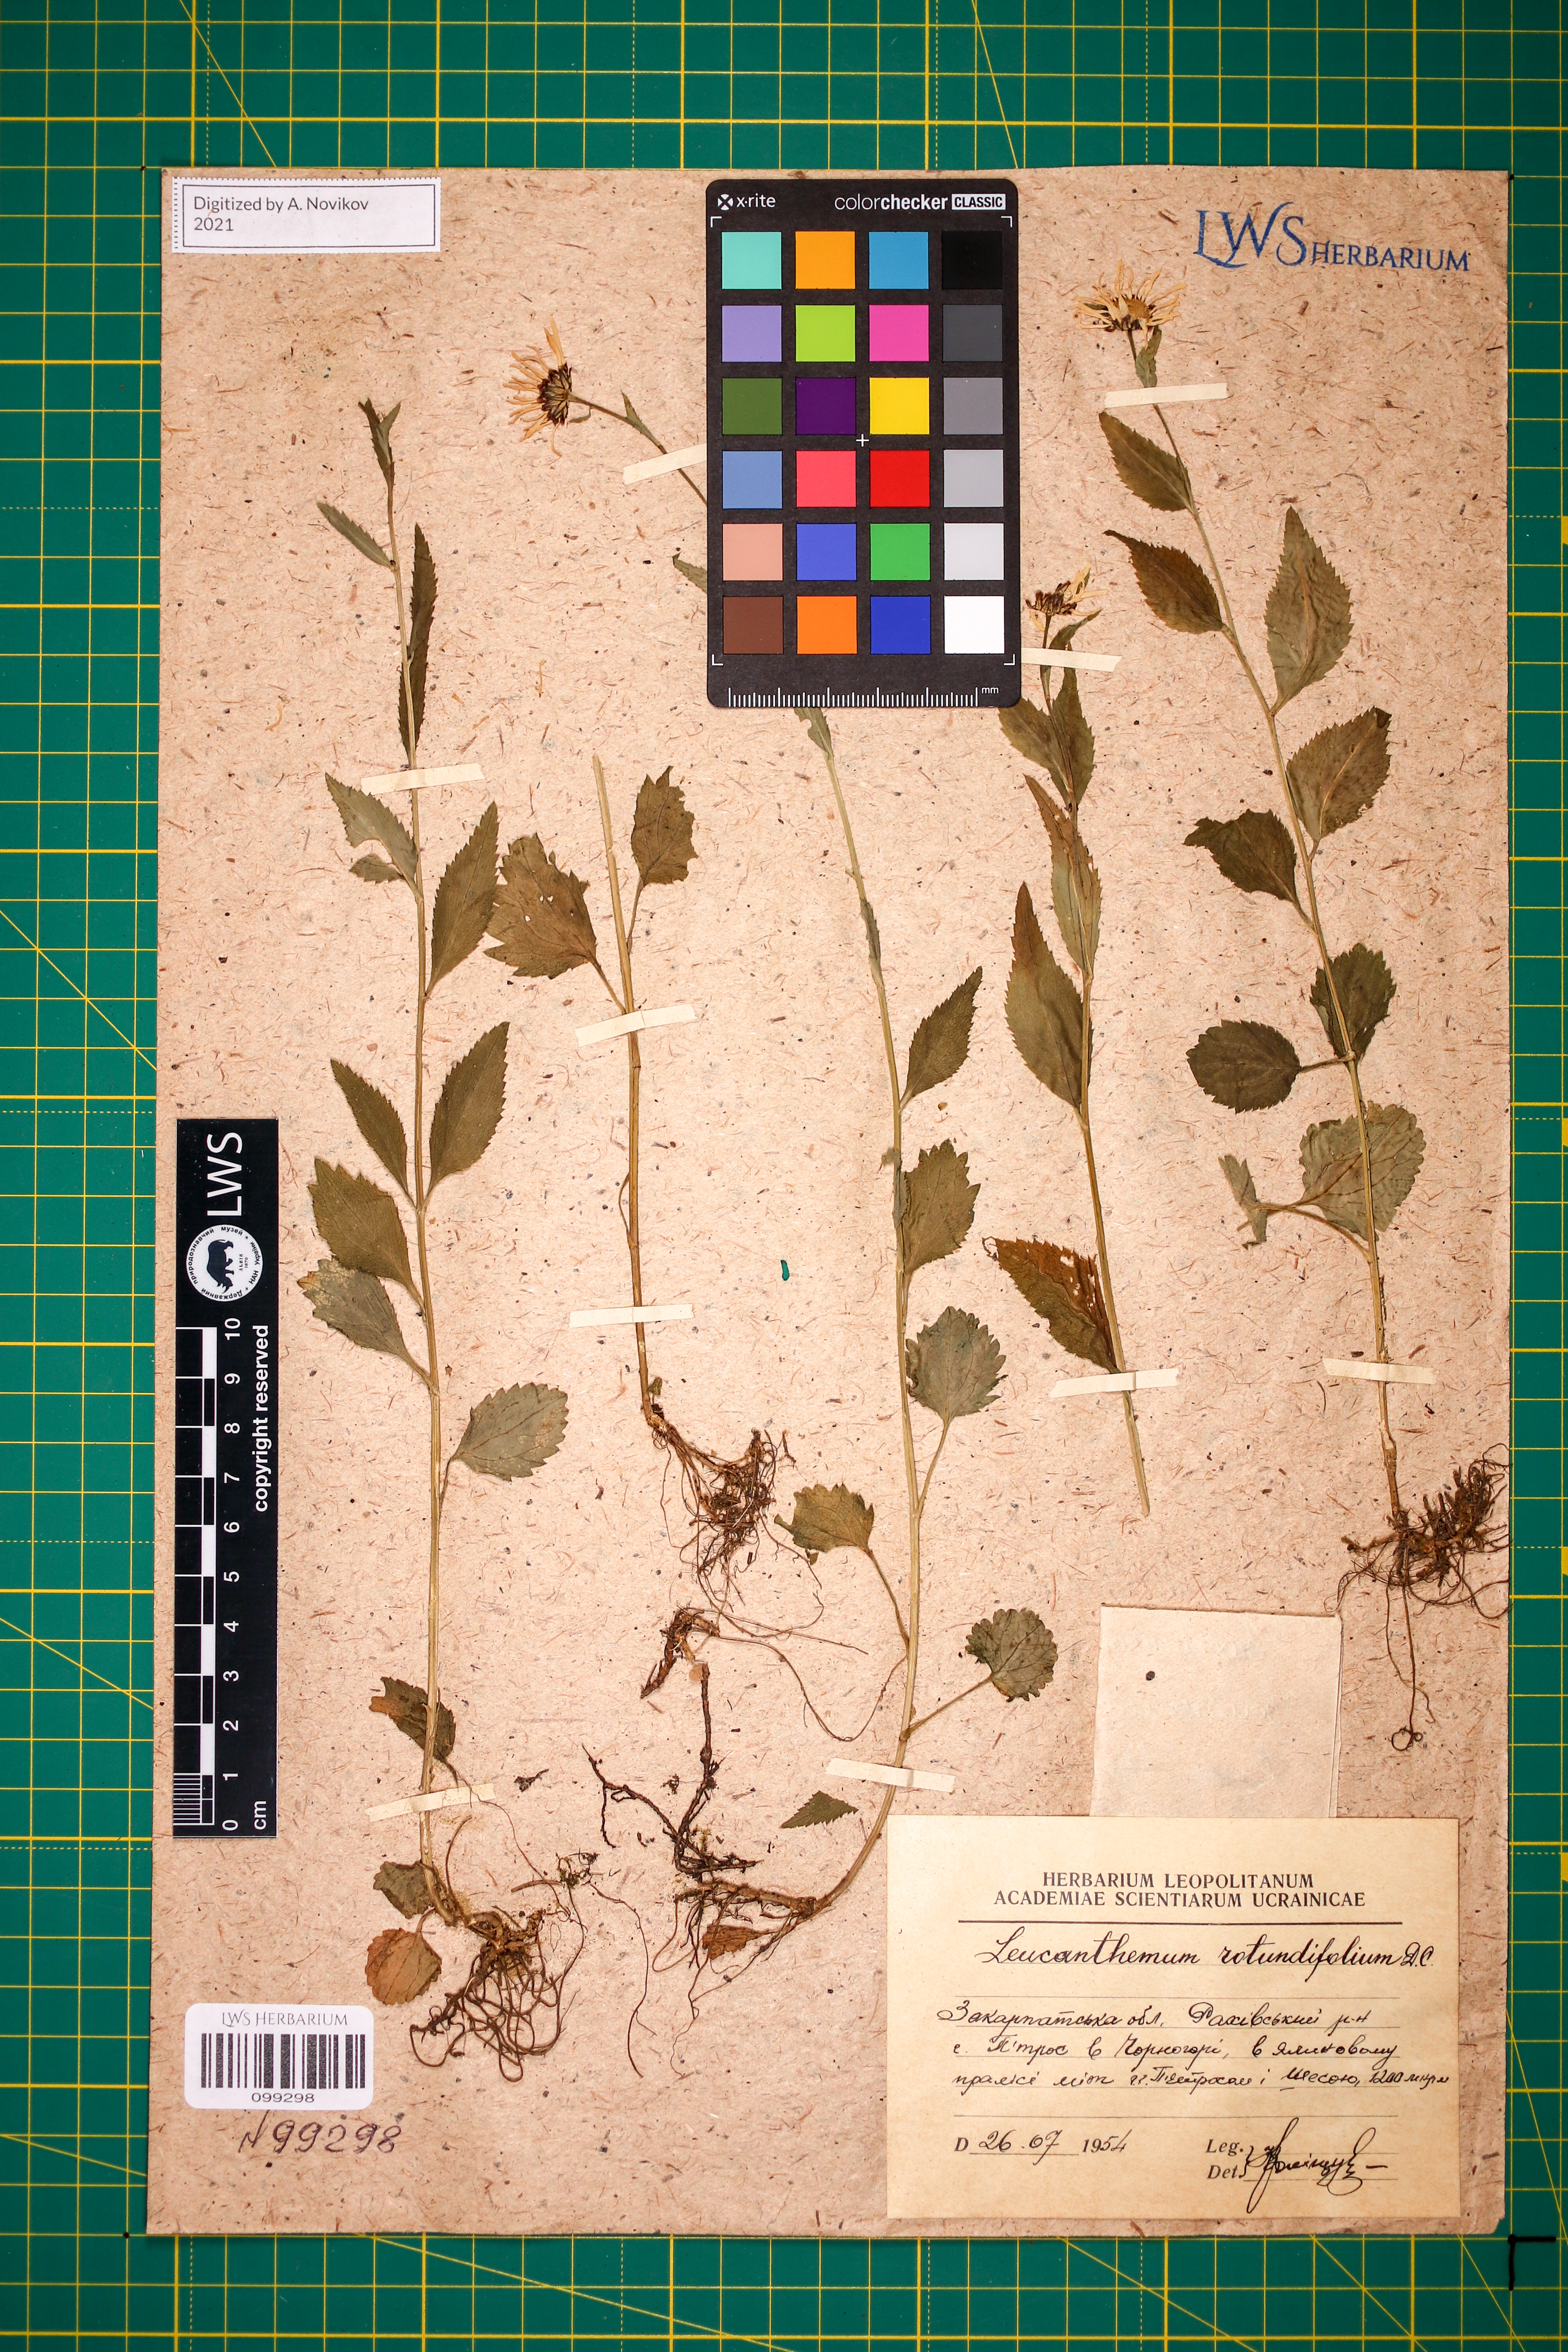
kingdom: Plantae
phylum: Tracheophyta
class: Magnoliopsida
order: Asterales
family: Asteraceae
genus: Leucanthemum
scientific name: Leucanthemum rotundifolium
